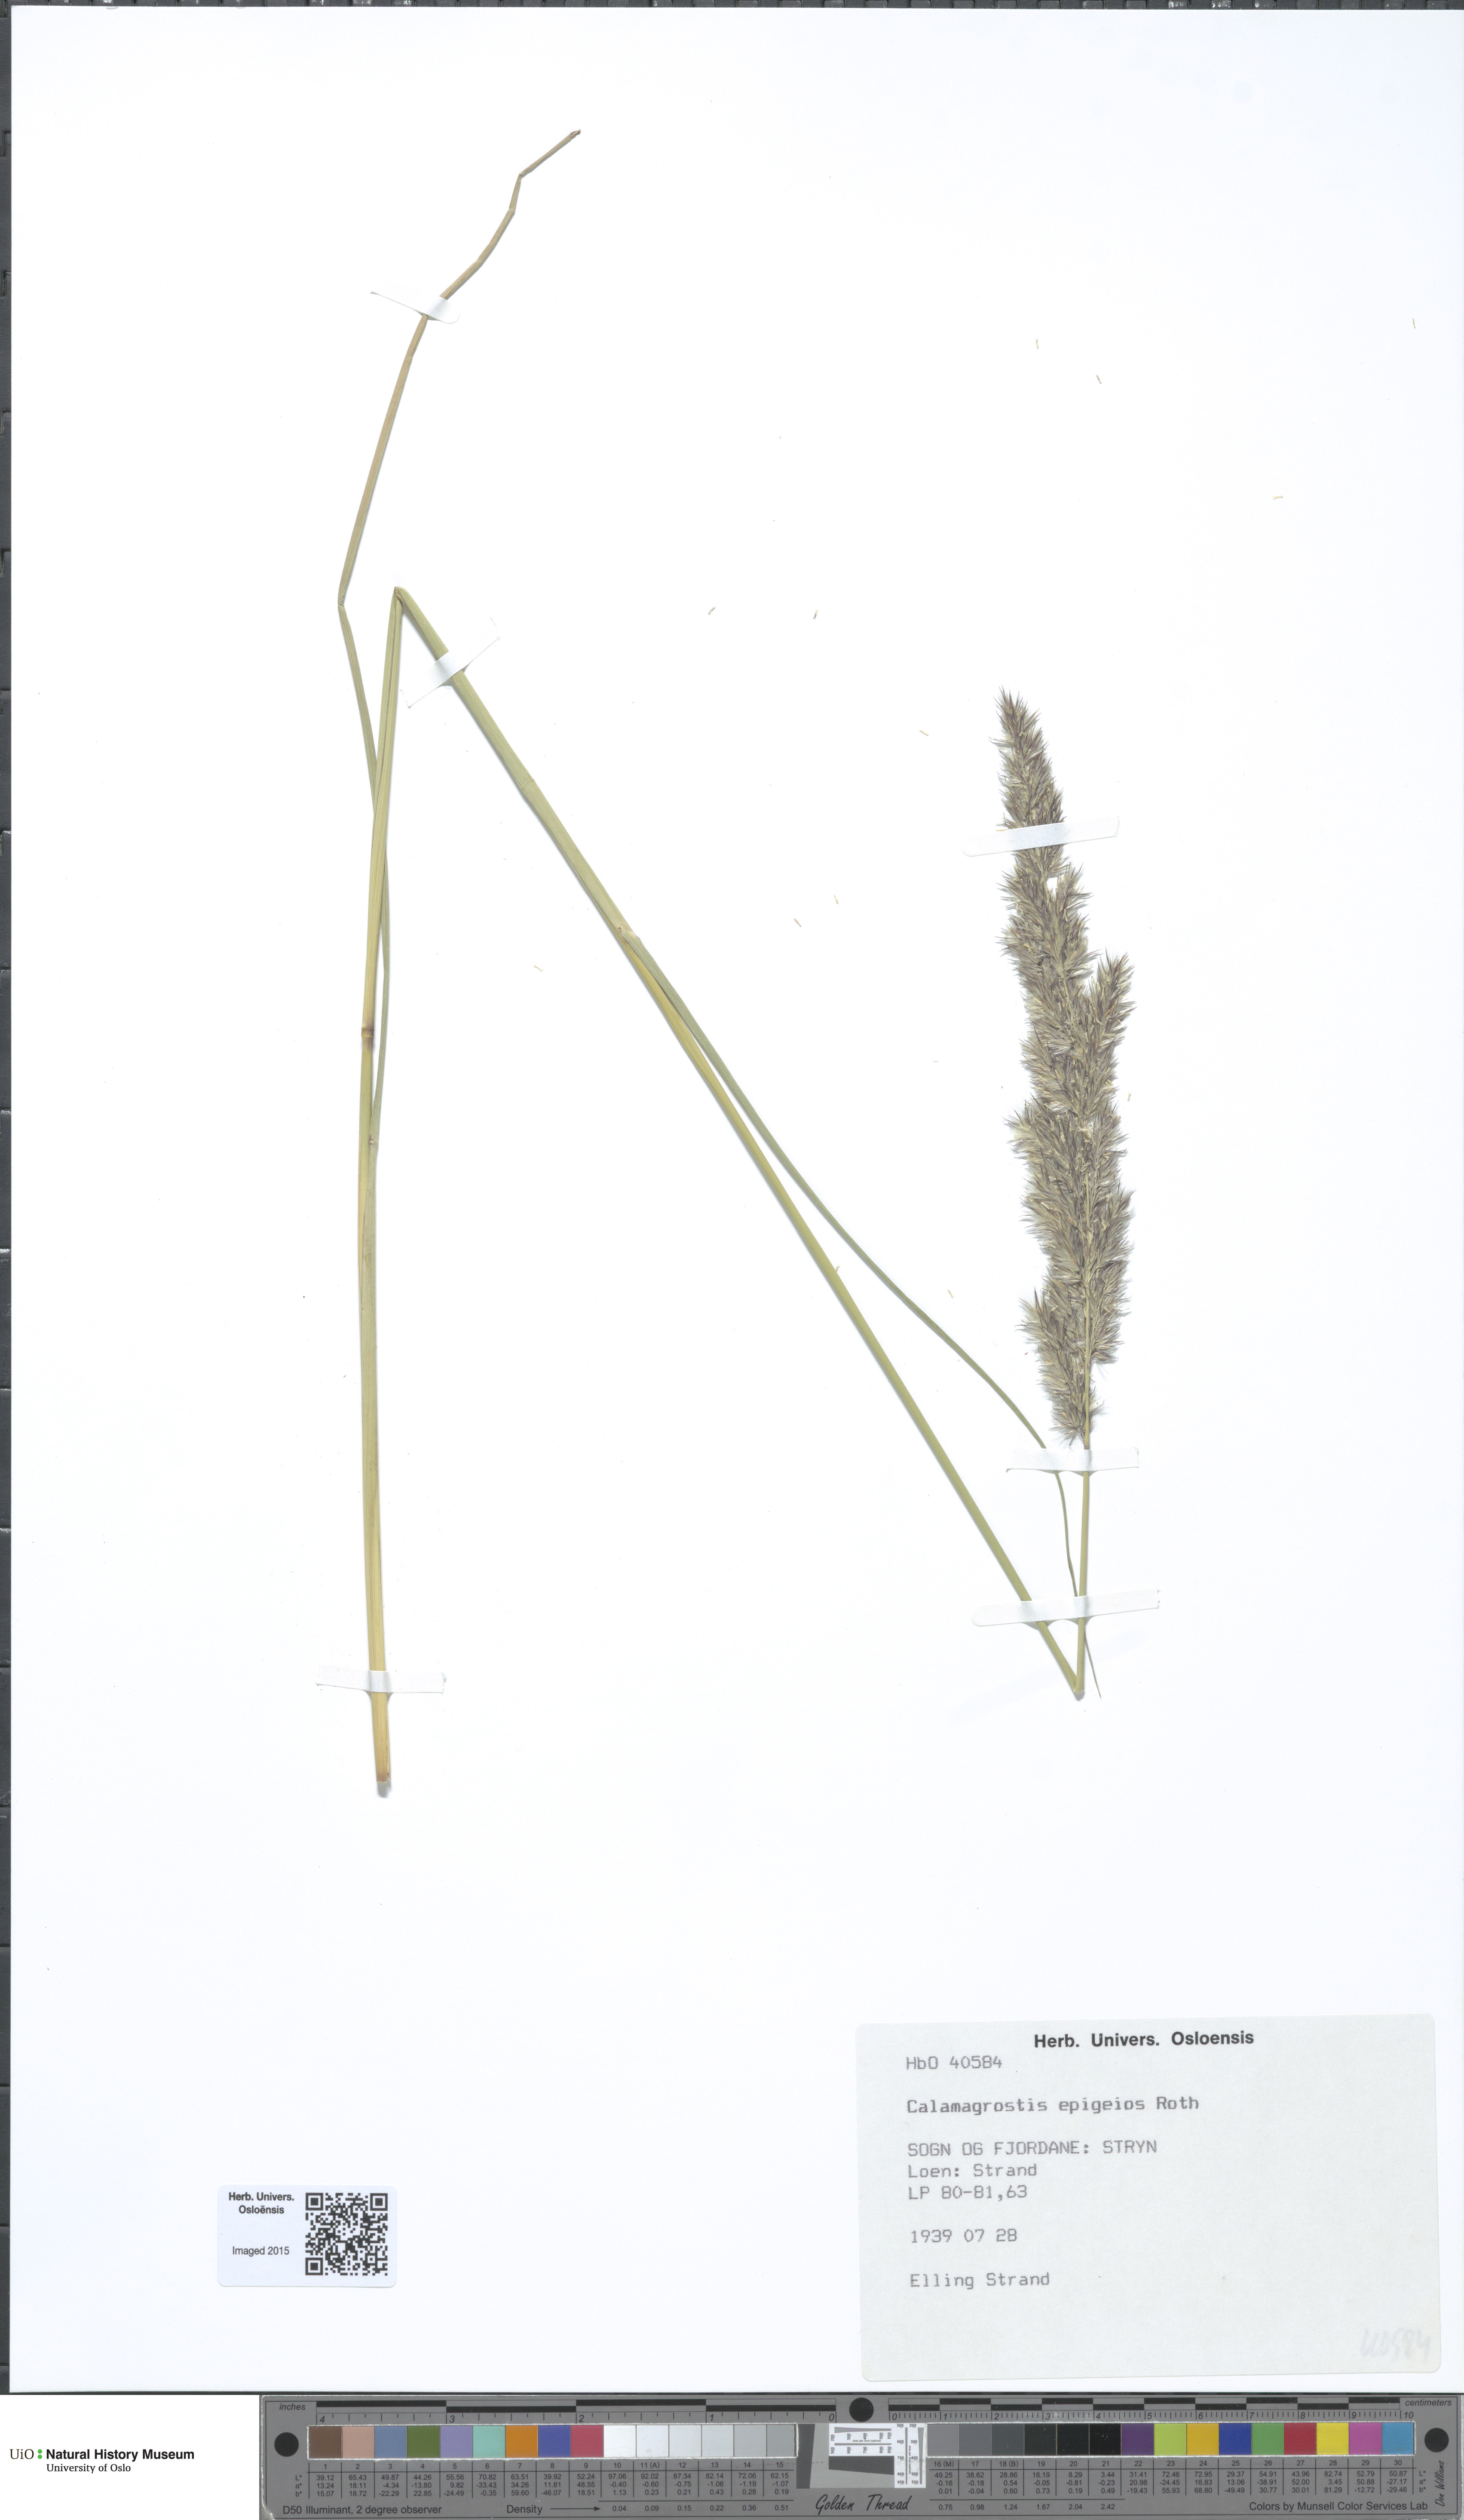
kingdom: Plantae
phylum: Tracheophyta
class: Liliopsida
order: Poales
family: Poaceae
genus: Calamagrostis
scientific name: Calamagrostis epigejos
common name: Wood small-reed
